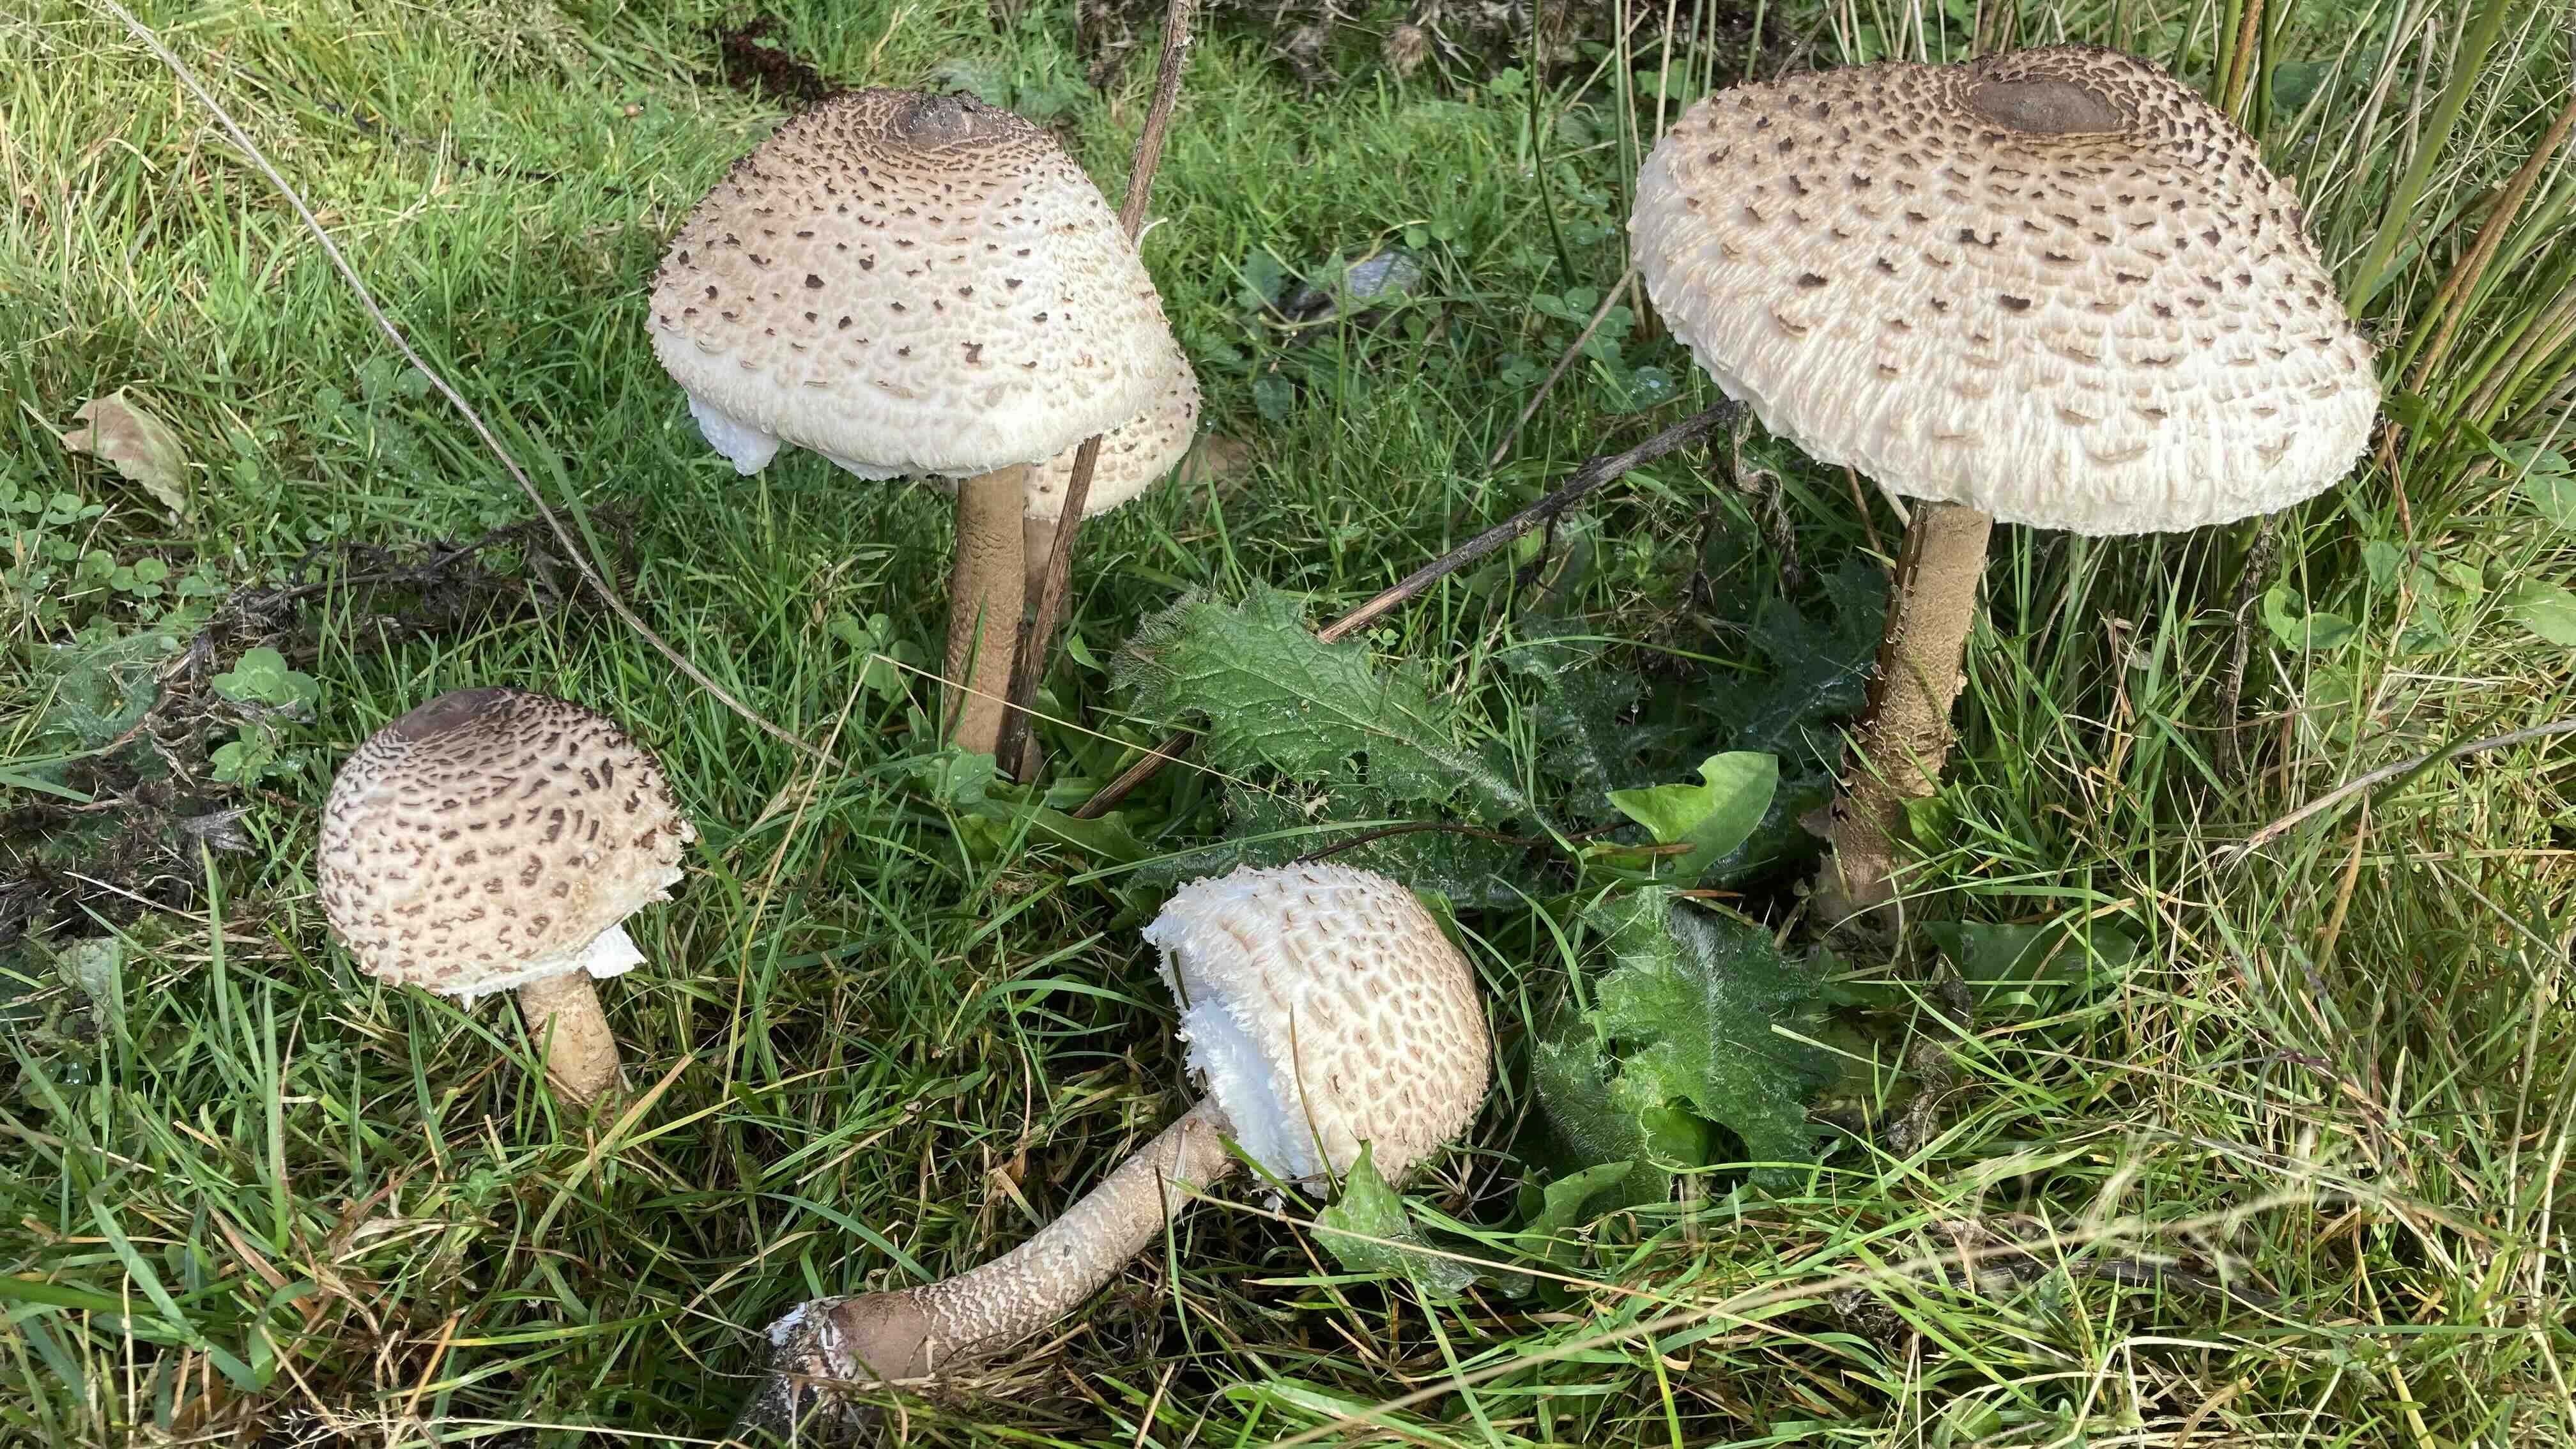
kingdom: Fungi
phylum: Basidiomycota
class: Agaricomycetes
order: Agaricales
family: Agaricaceae
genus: Macrolepiota
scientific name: Macrolepiota procera
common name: stor kæmpeparasolhat
